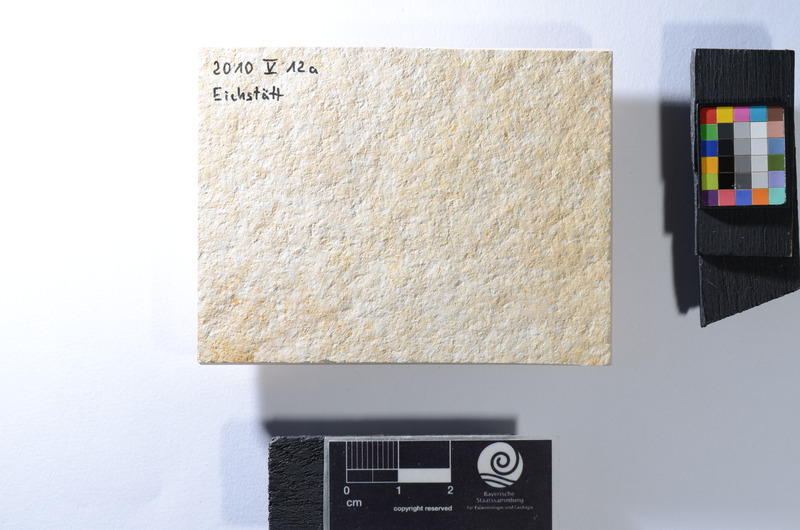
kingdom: Animalia
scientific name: Animalia
